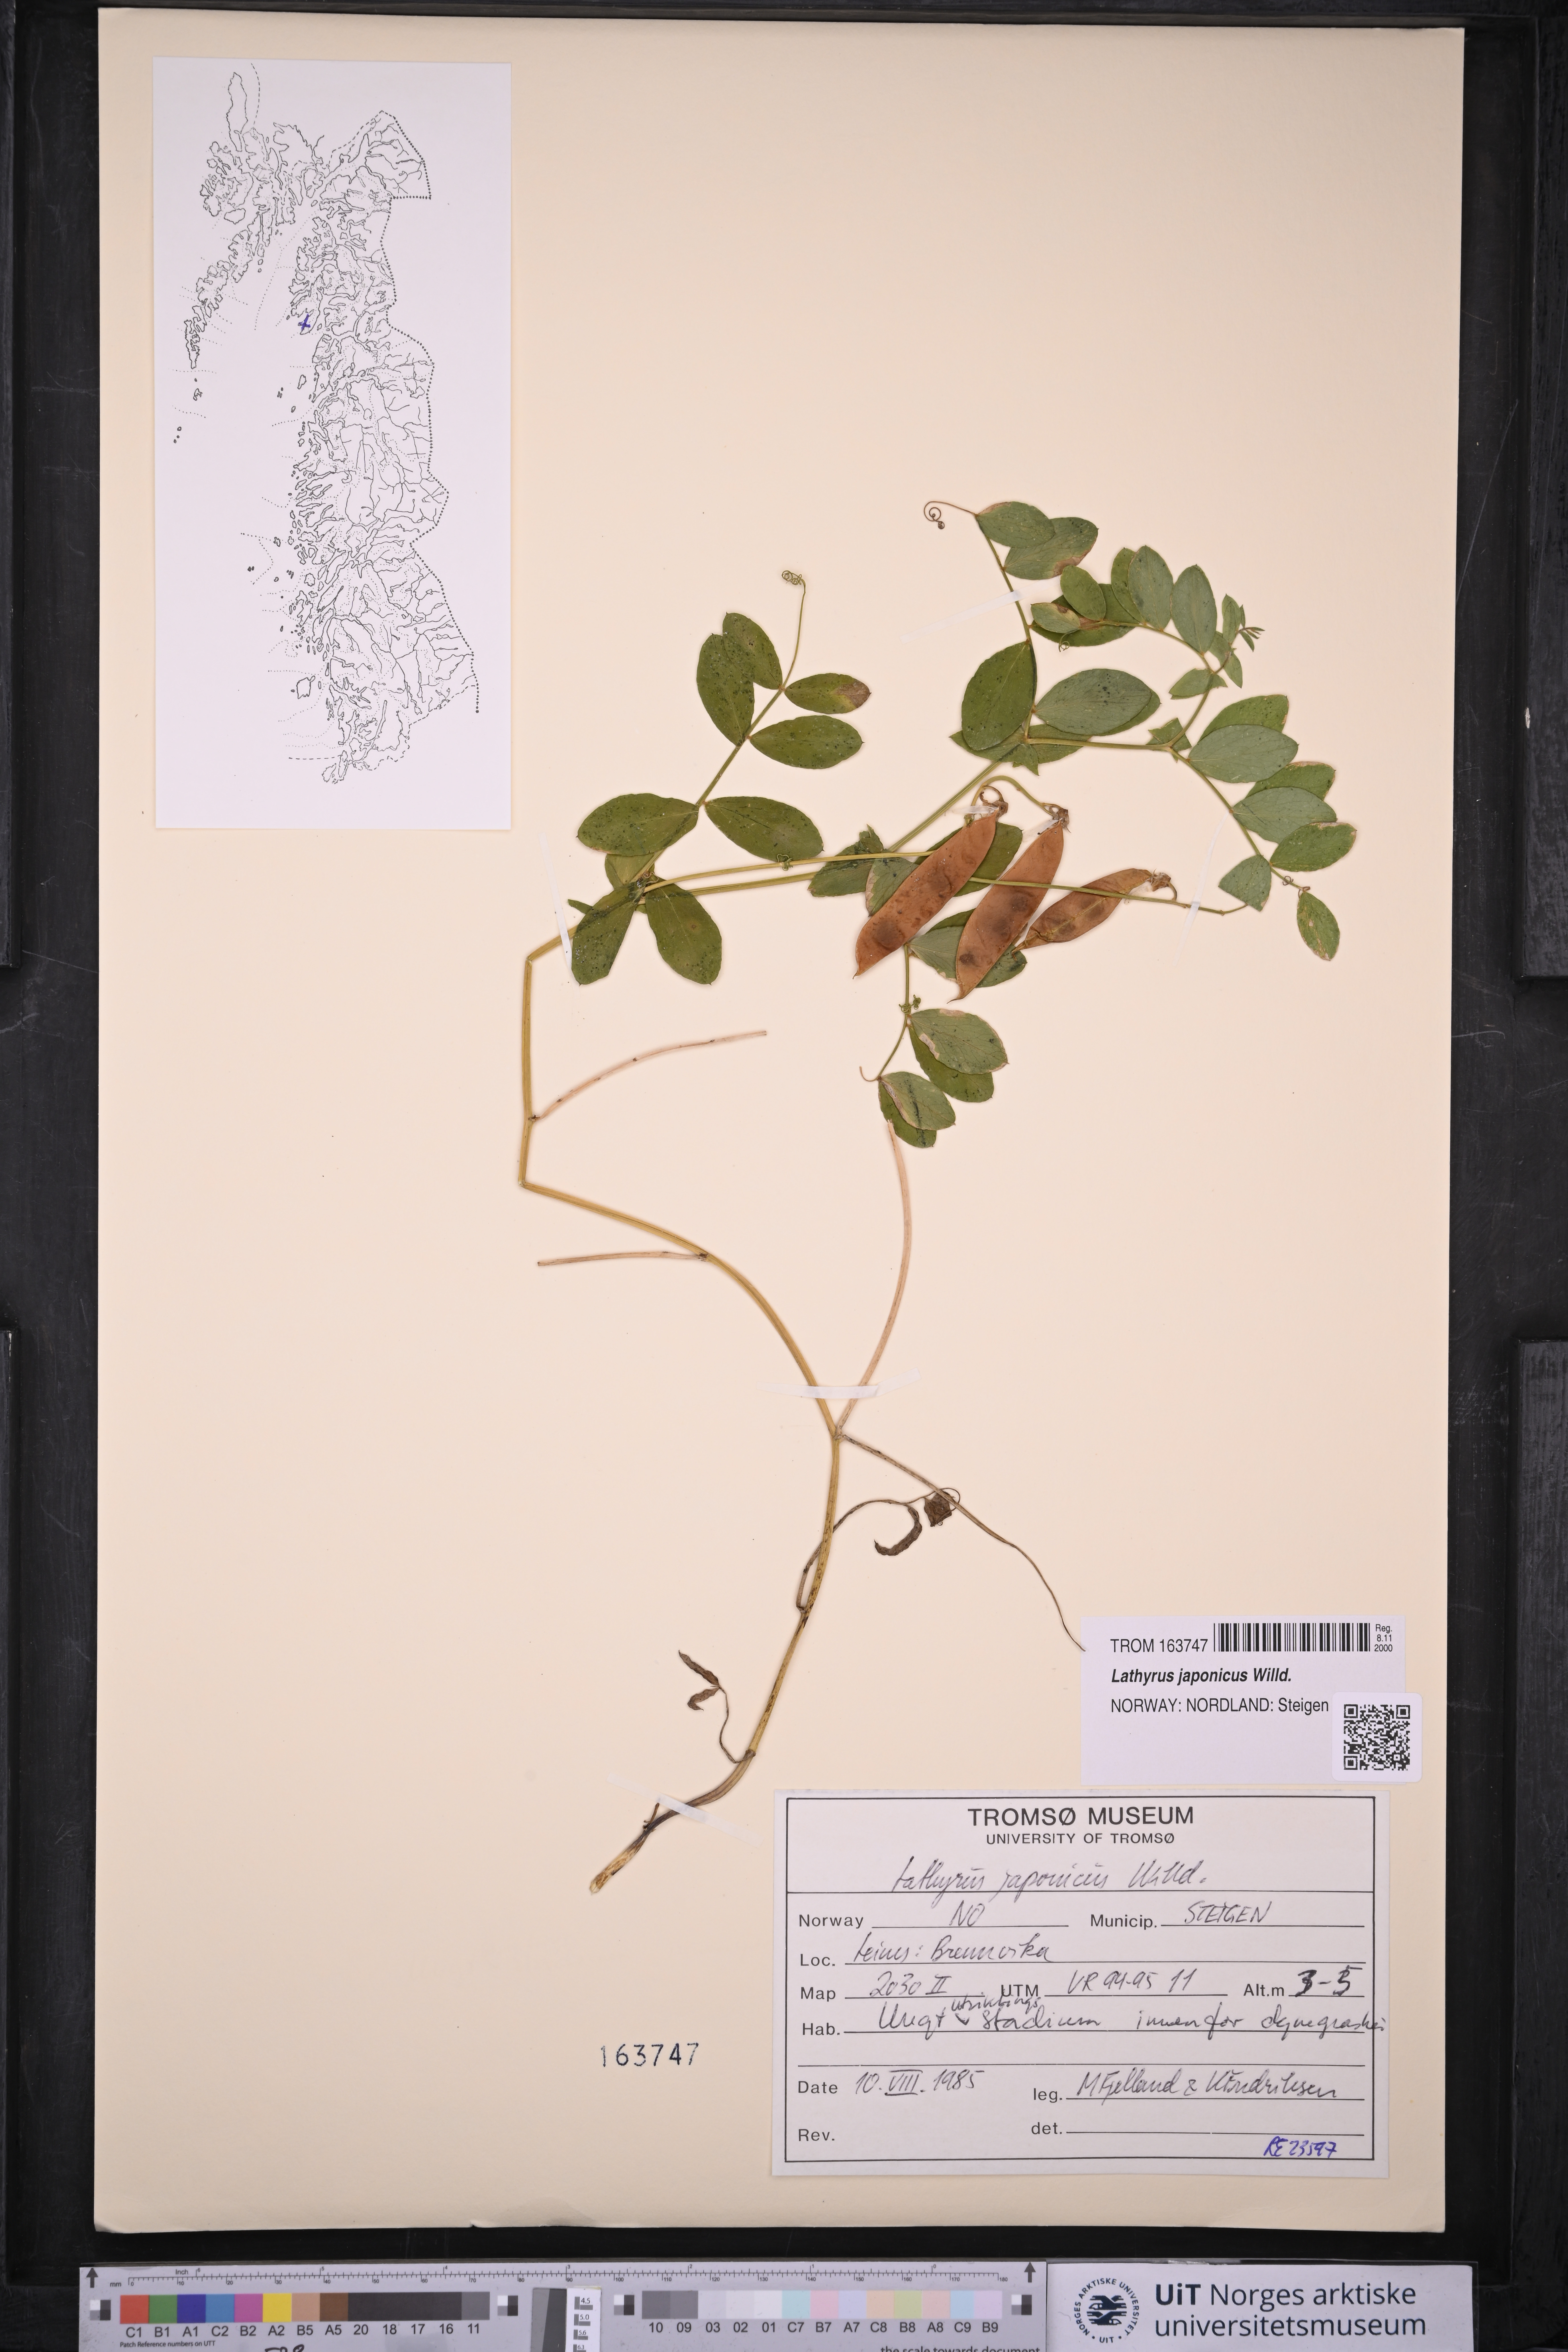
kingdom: Plantae
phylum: Tracheophyta
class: Magnoliopsida
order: Fabales
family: Fabaceae
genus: Lathyrus
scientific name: Lathyrus japonicus
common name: Sea pea
